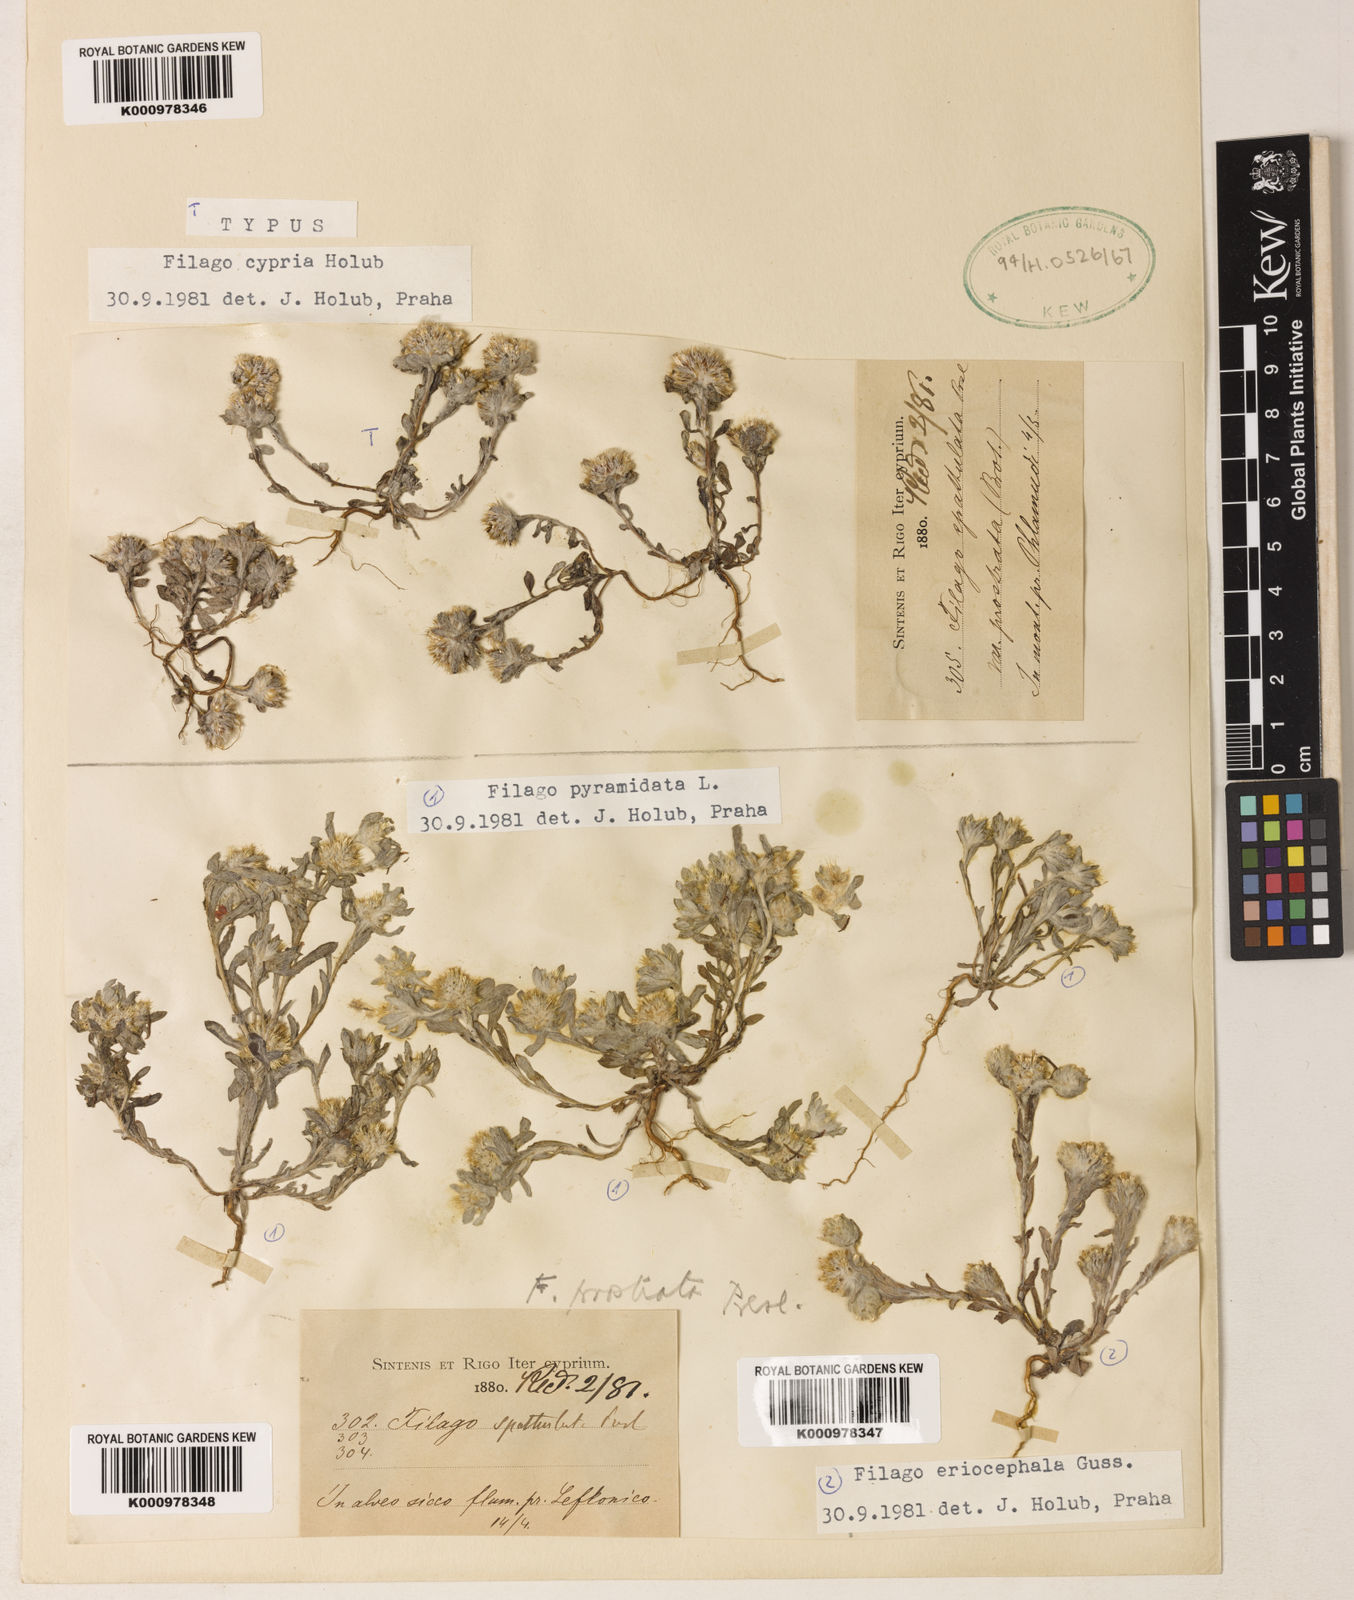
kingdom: Plantae
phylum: Tracheophyta
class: Magnoliopsida
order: Asterales
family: Asteraceae
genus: Filago
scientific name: Filago
